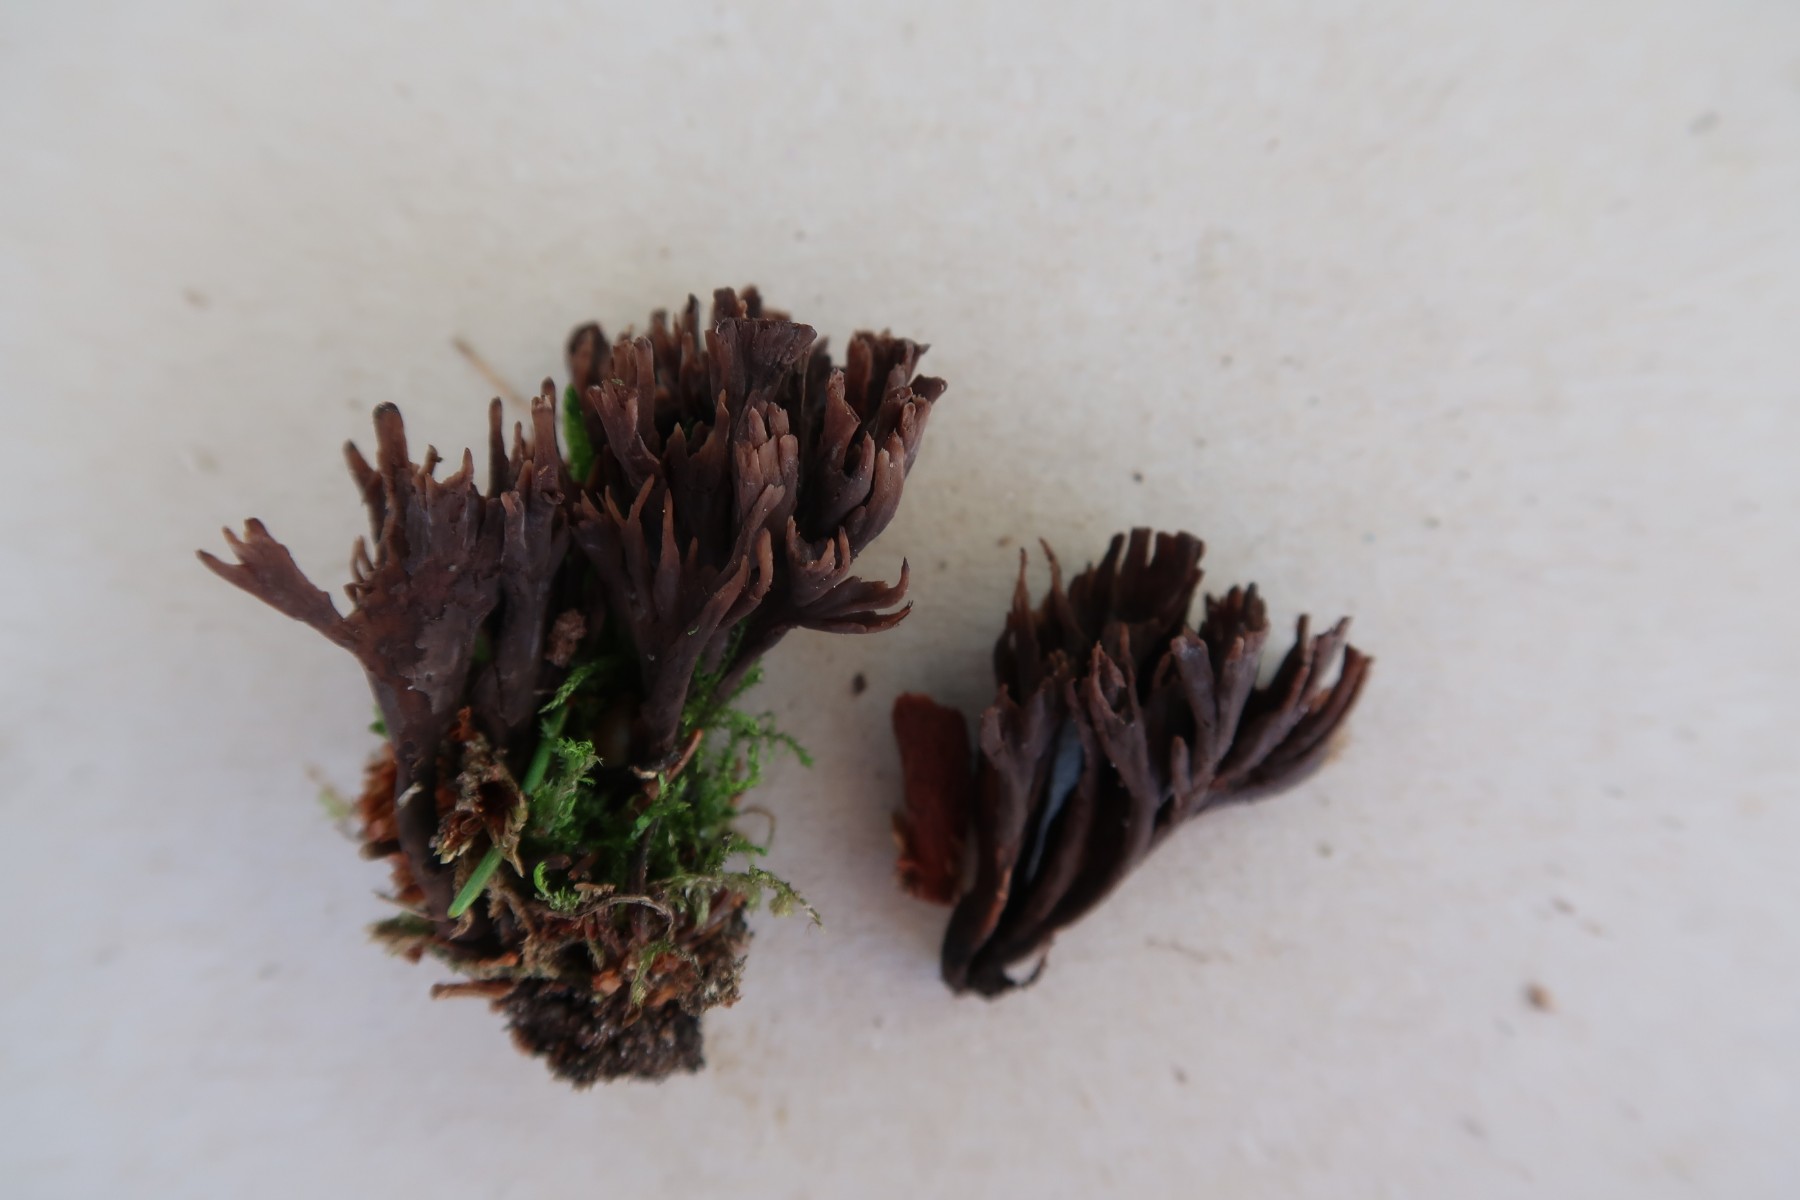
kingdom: Fungi
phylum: Basidiomycota
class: Agaricomycetes
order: Thelephorales
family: Thelephoraceae
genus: Thelephora
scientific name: Thelephora palmata
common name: grenet frynsesvamp
